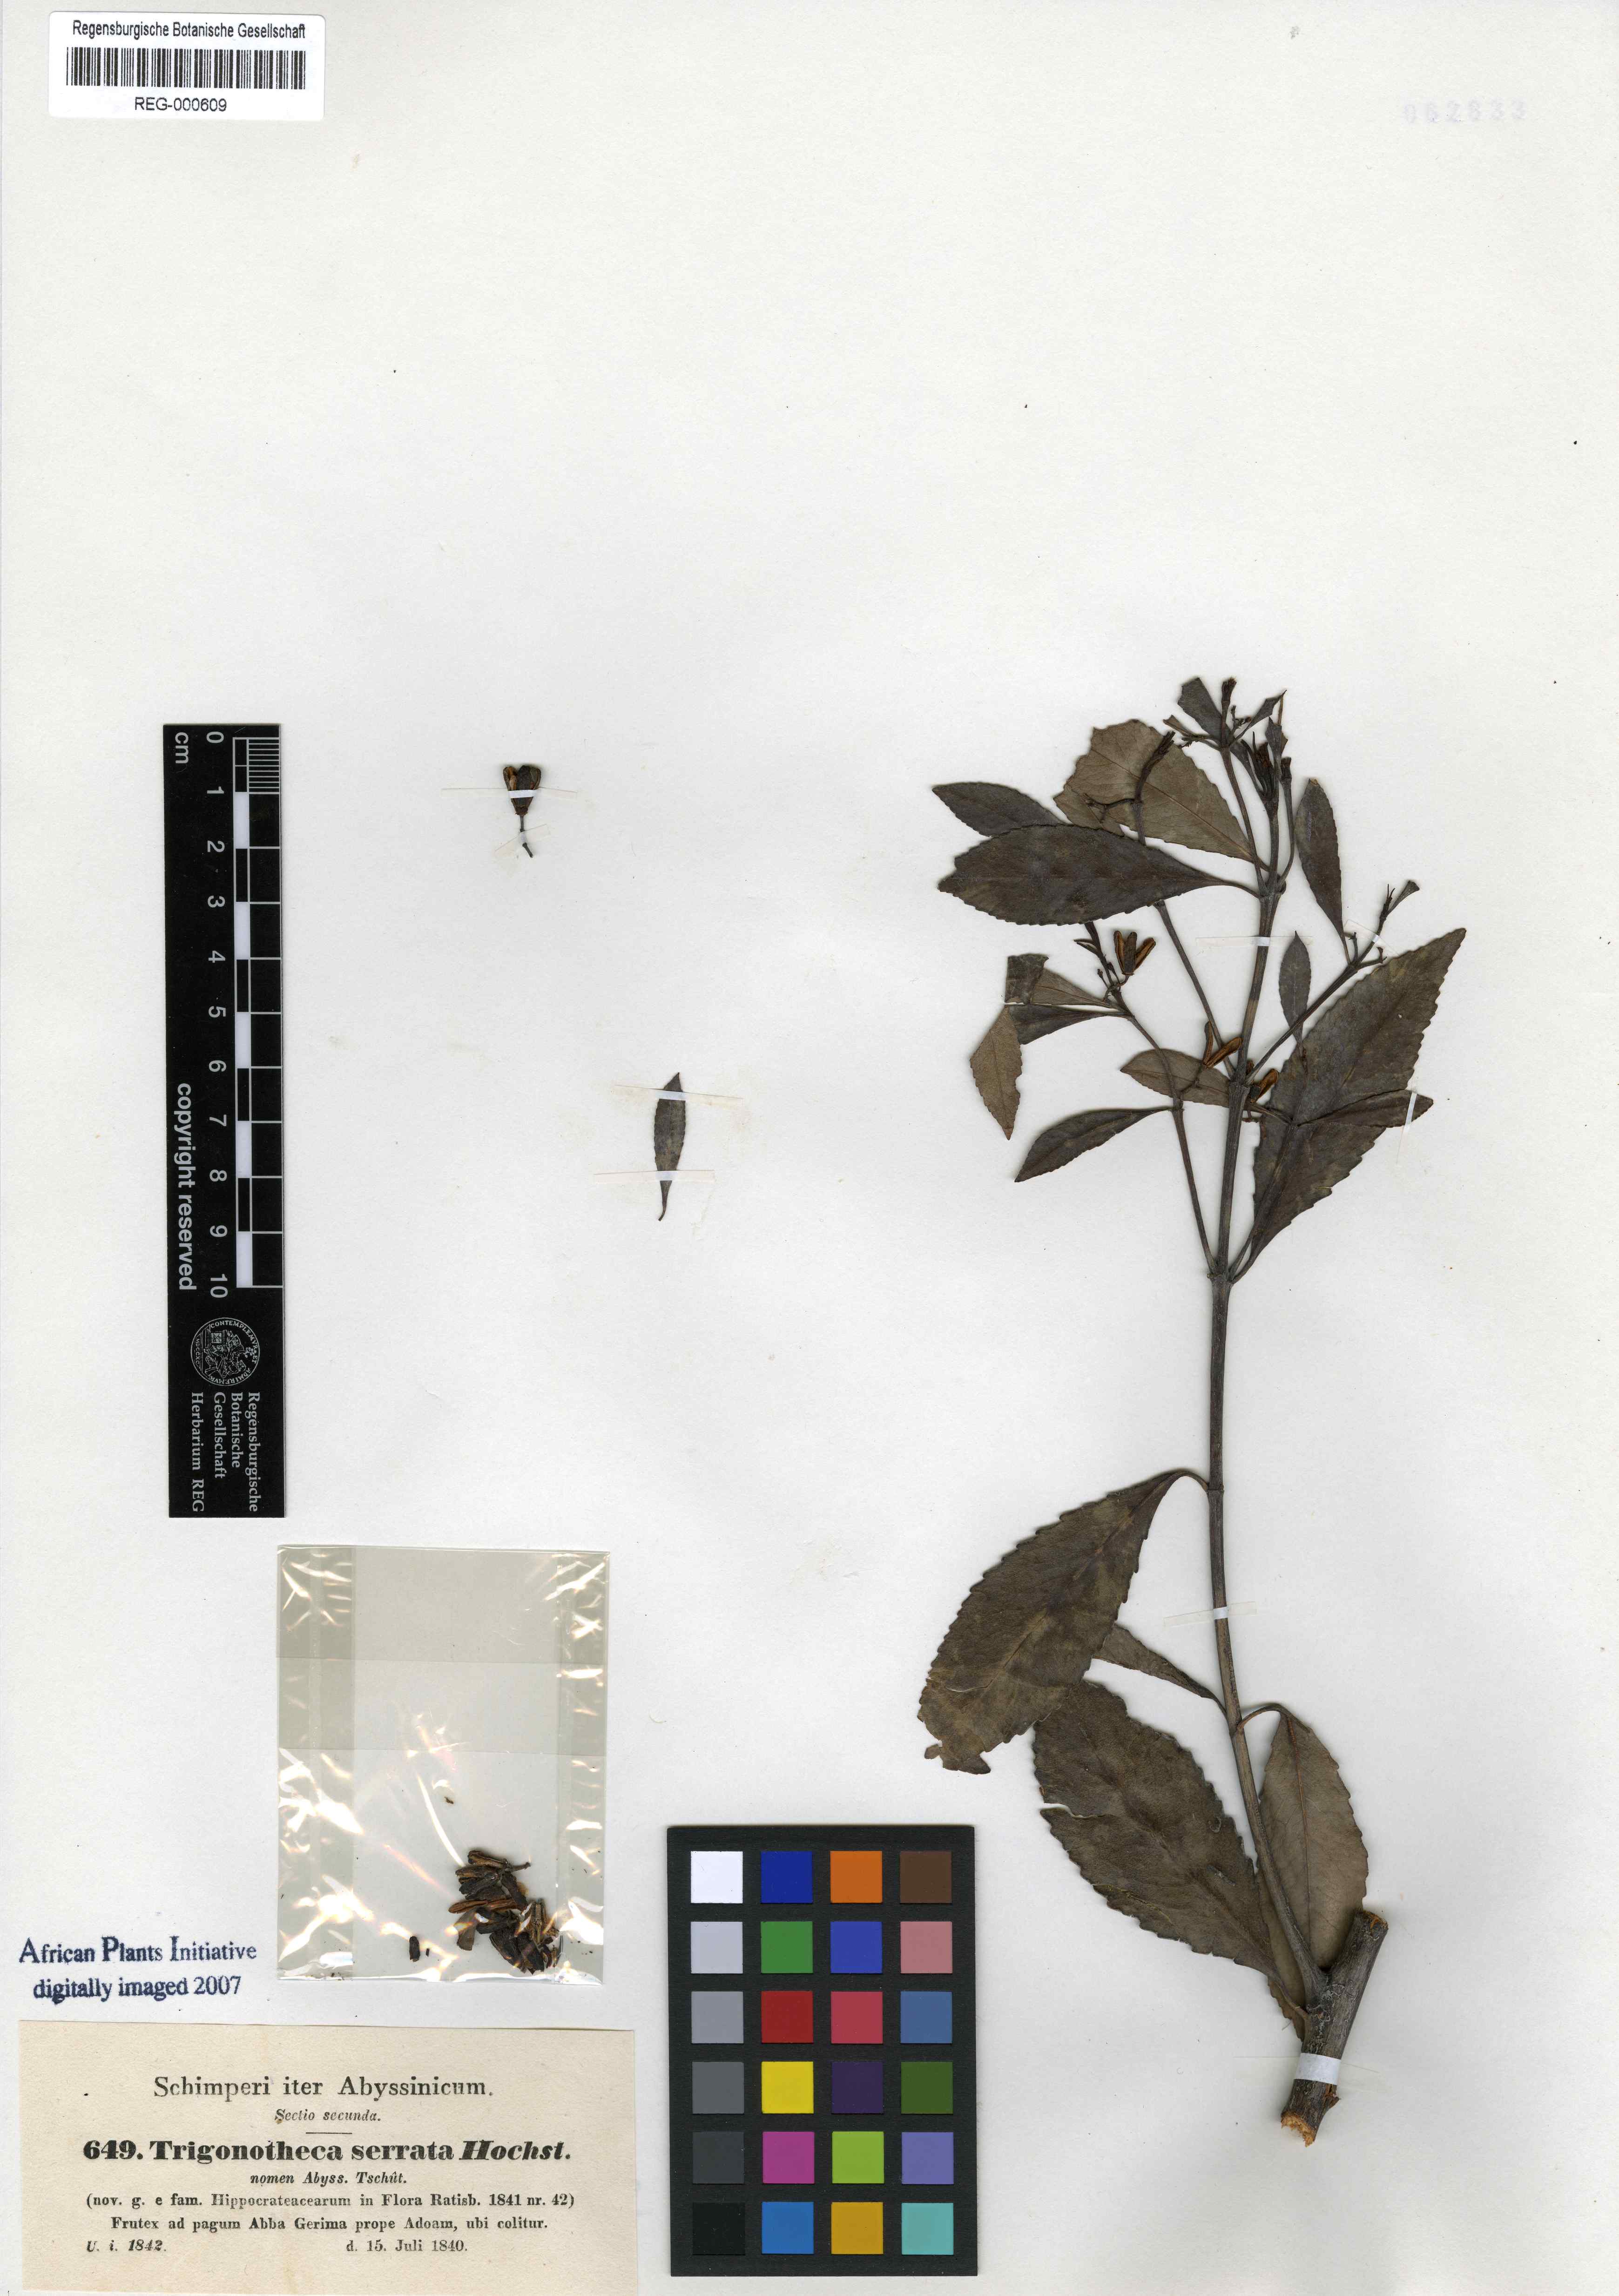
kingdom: Plantae
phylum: Tracheophyta
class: Magnoliopsida
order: Celastrales
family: Celastraceae
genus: Catha
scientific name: Catha edulis
